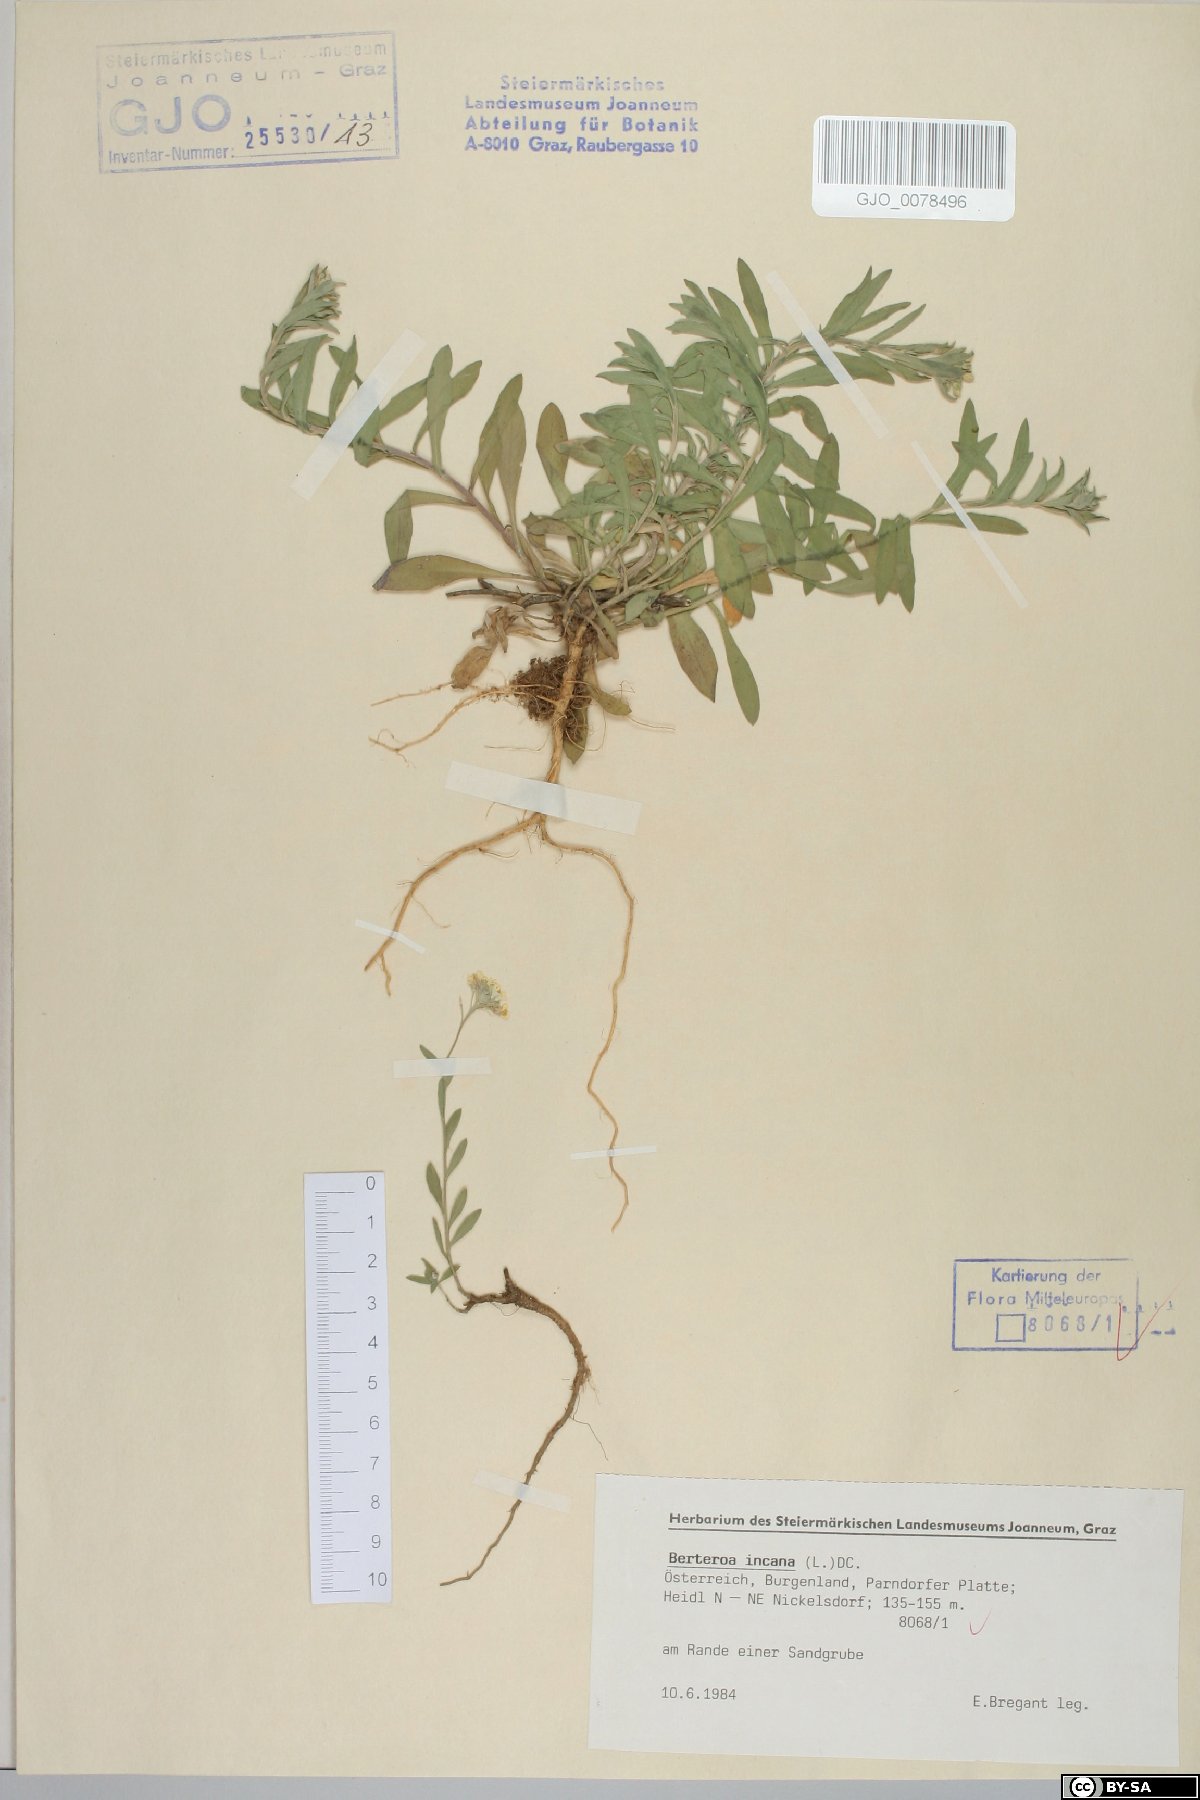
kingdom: Plantae
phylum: Tracheophyta
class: Magnoliopsida
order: Brassicales
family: Brassicaceae
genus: Berteroa
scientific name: Berteroa incana
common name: Hoary alison
